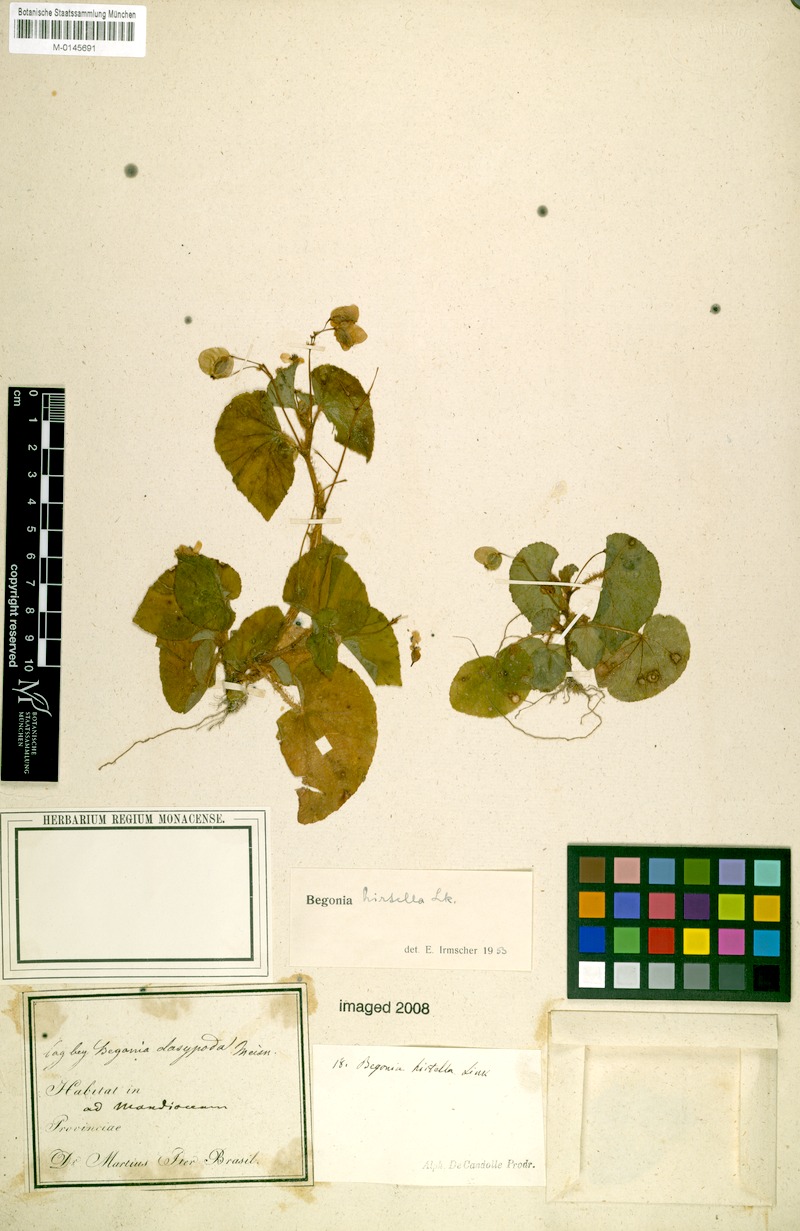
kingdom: Plantae
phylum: Tracheophyta
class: Magnoliopsida
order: Cucurbitales
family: Begoniaceae
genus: Begonia
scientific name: Begonia hirtella
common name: Brazilian begonia
